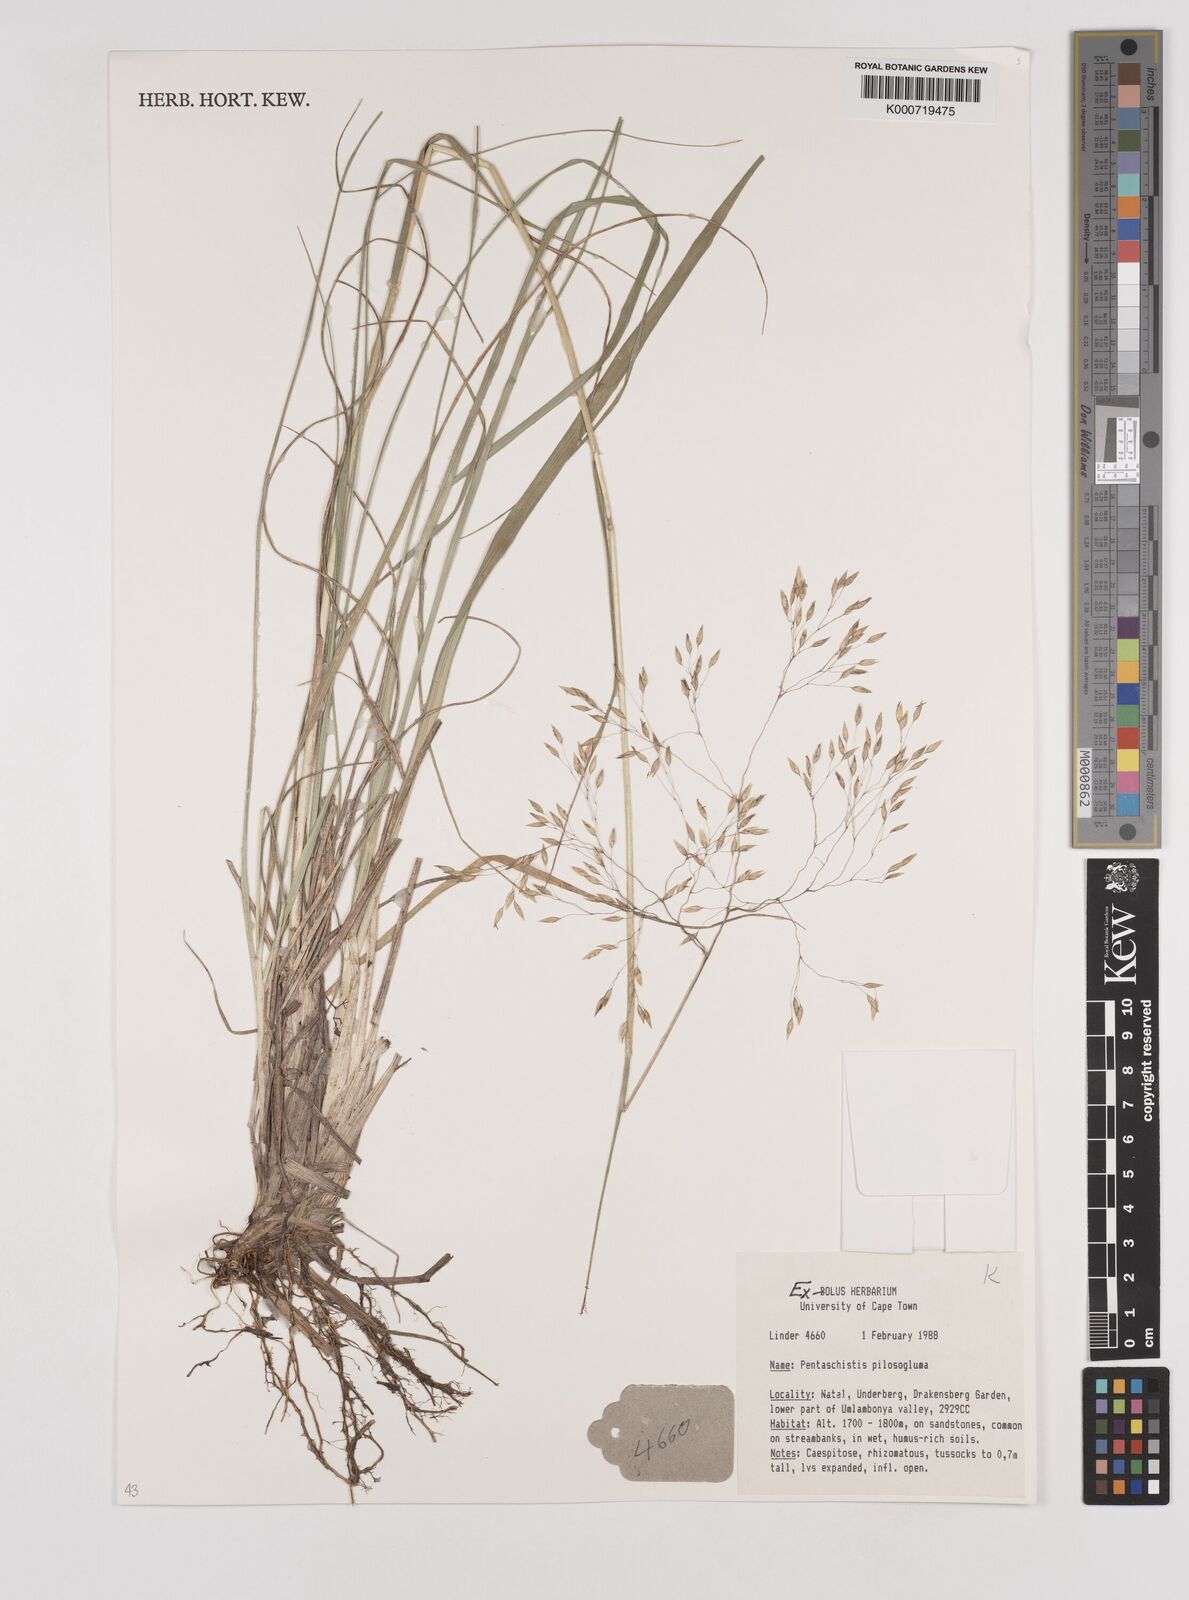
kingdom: Plantae
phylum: Tracheophyta
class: Liliopsida
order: Poales
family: Poaceae
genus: Pentameris
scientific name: Pentameris aurea
